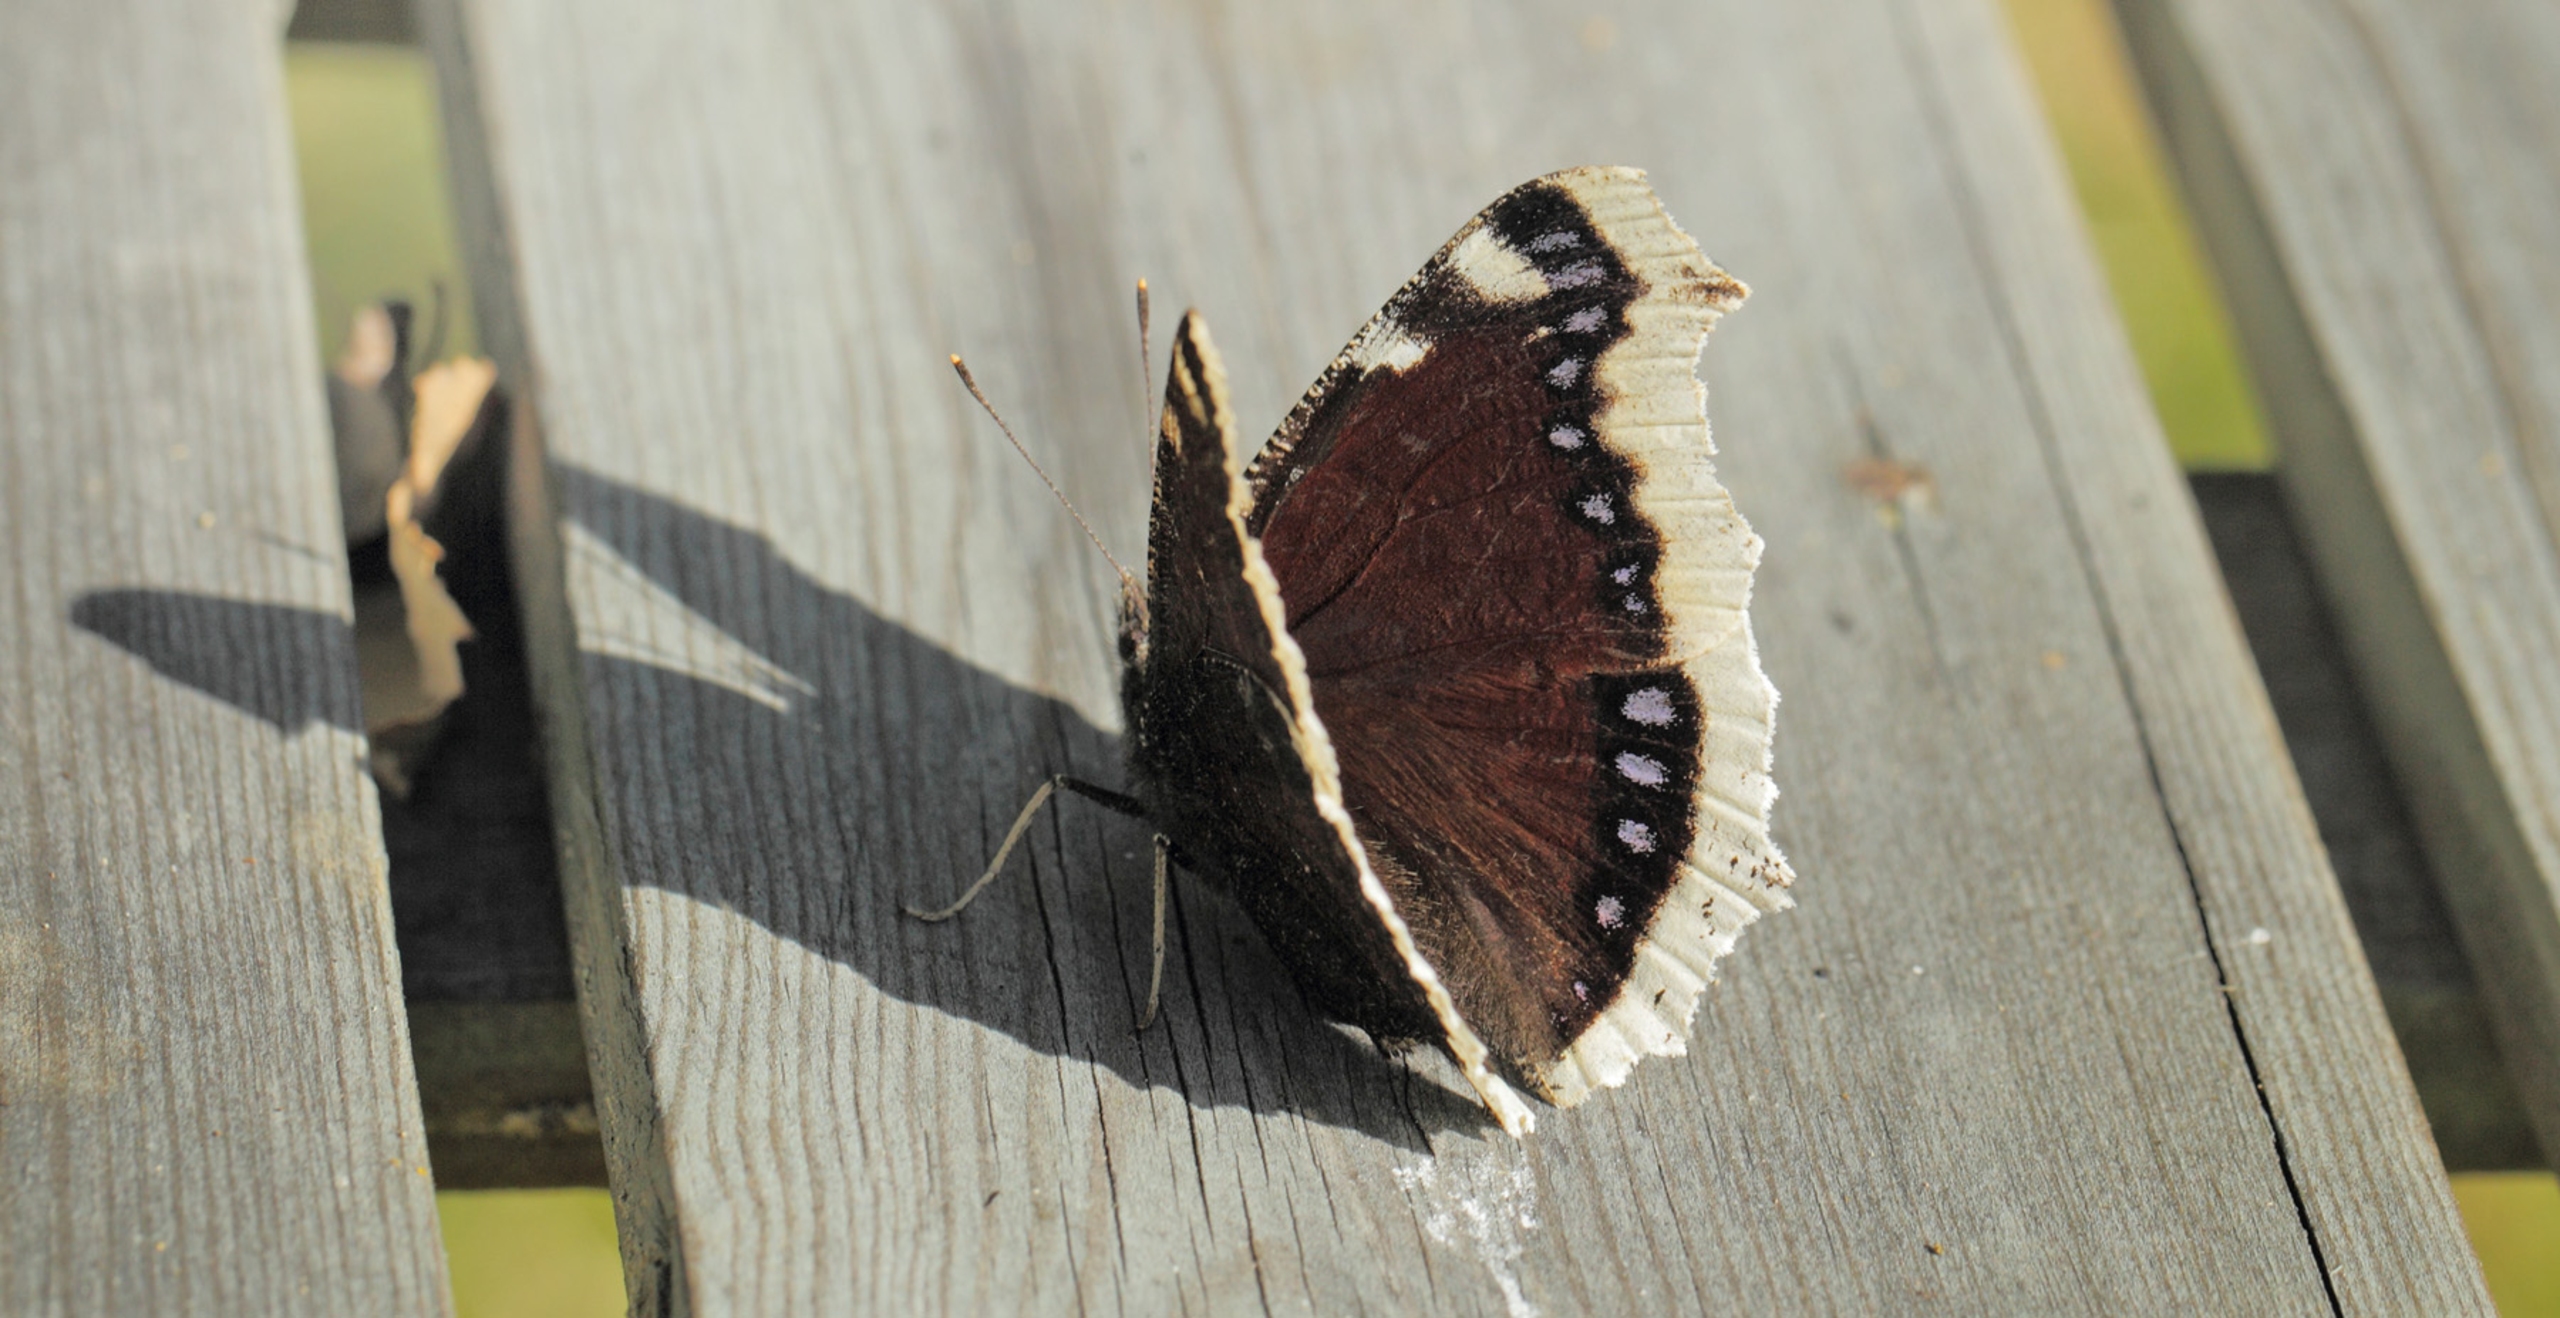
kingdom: Animalia
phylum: Arthropoda
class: Insecta
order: Lepidoptera
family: Nymphalidae
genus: Nymphalis
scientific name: Nymphalis antiopa
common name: Sørgekåbe
